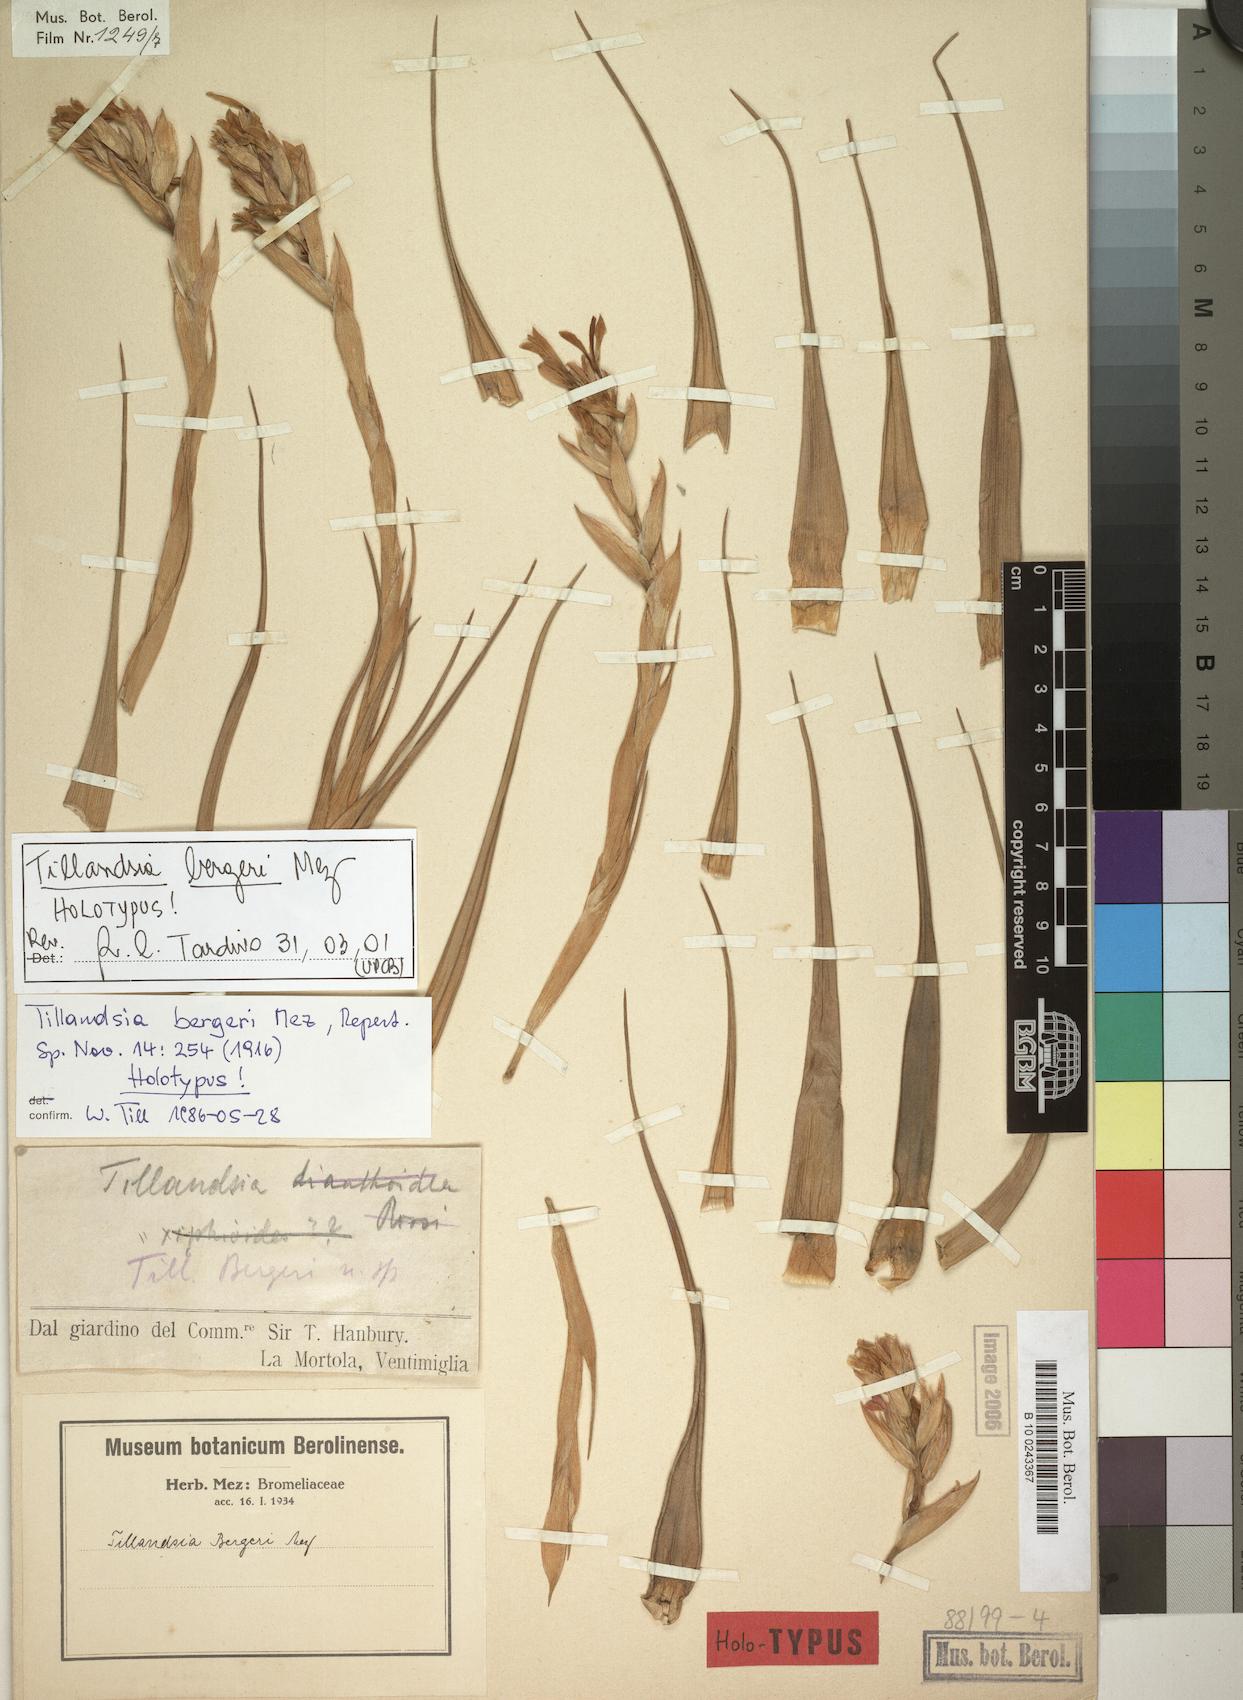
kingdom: Plantae
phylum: Tracheophyta
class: Liliopsida
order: Poales
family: Bromeliaceae
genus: Tillandsia
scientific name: Tillandsia bergeri
